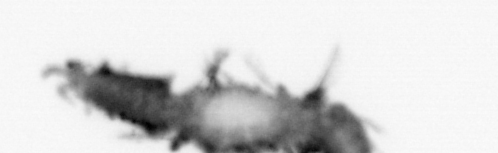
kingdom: Animalia
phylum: Annelida
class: Polychaeta
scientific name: Polychaeta
